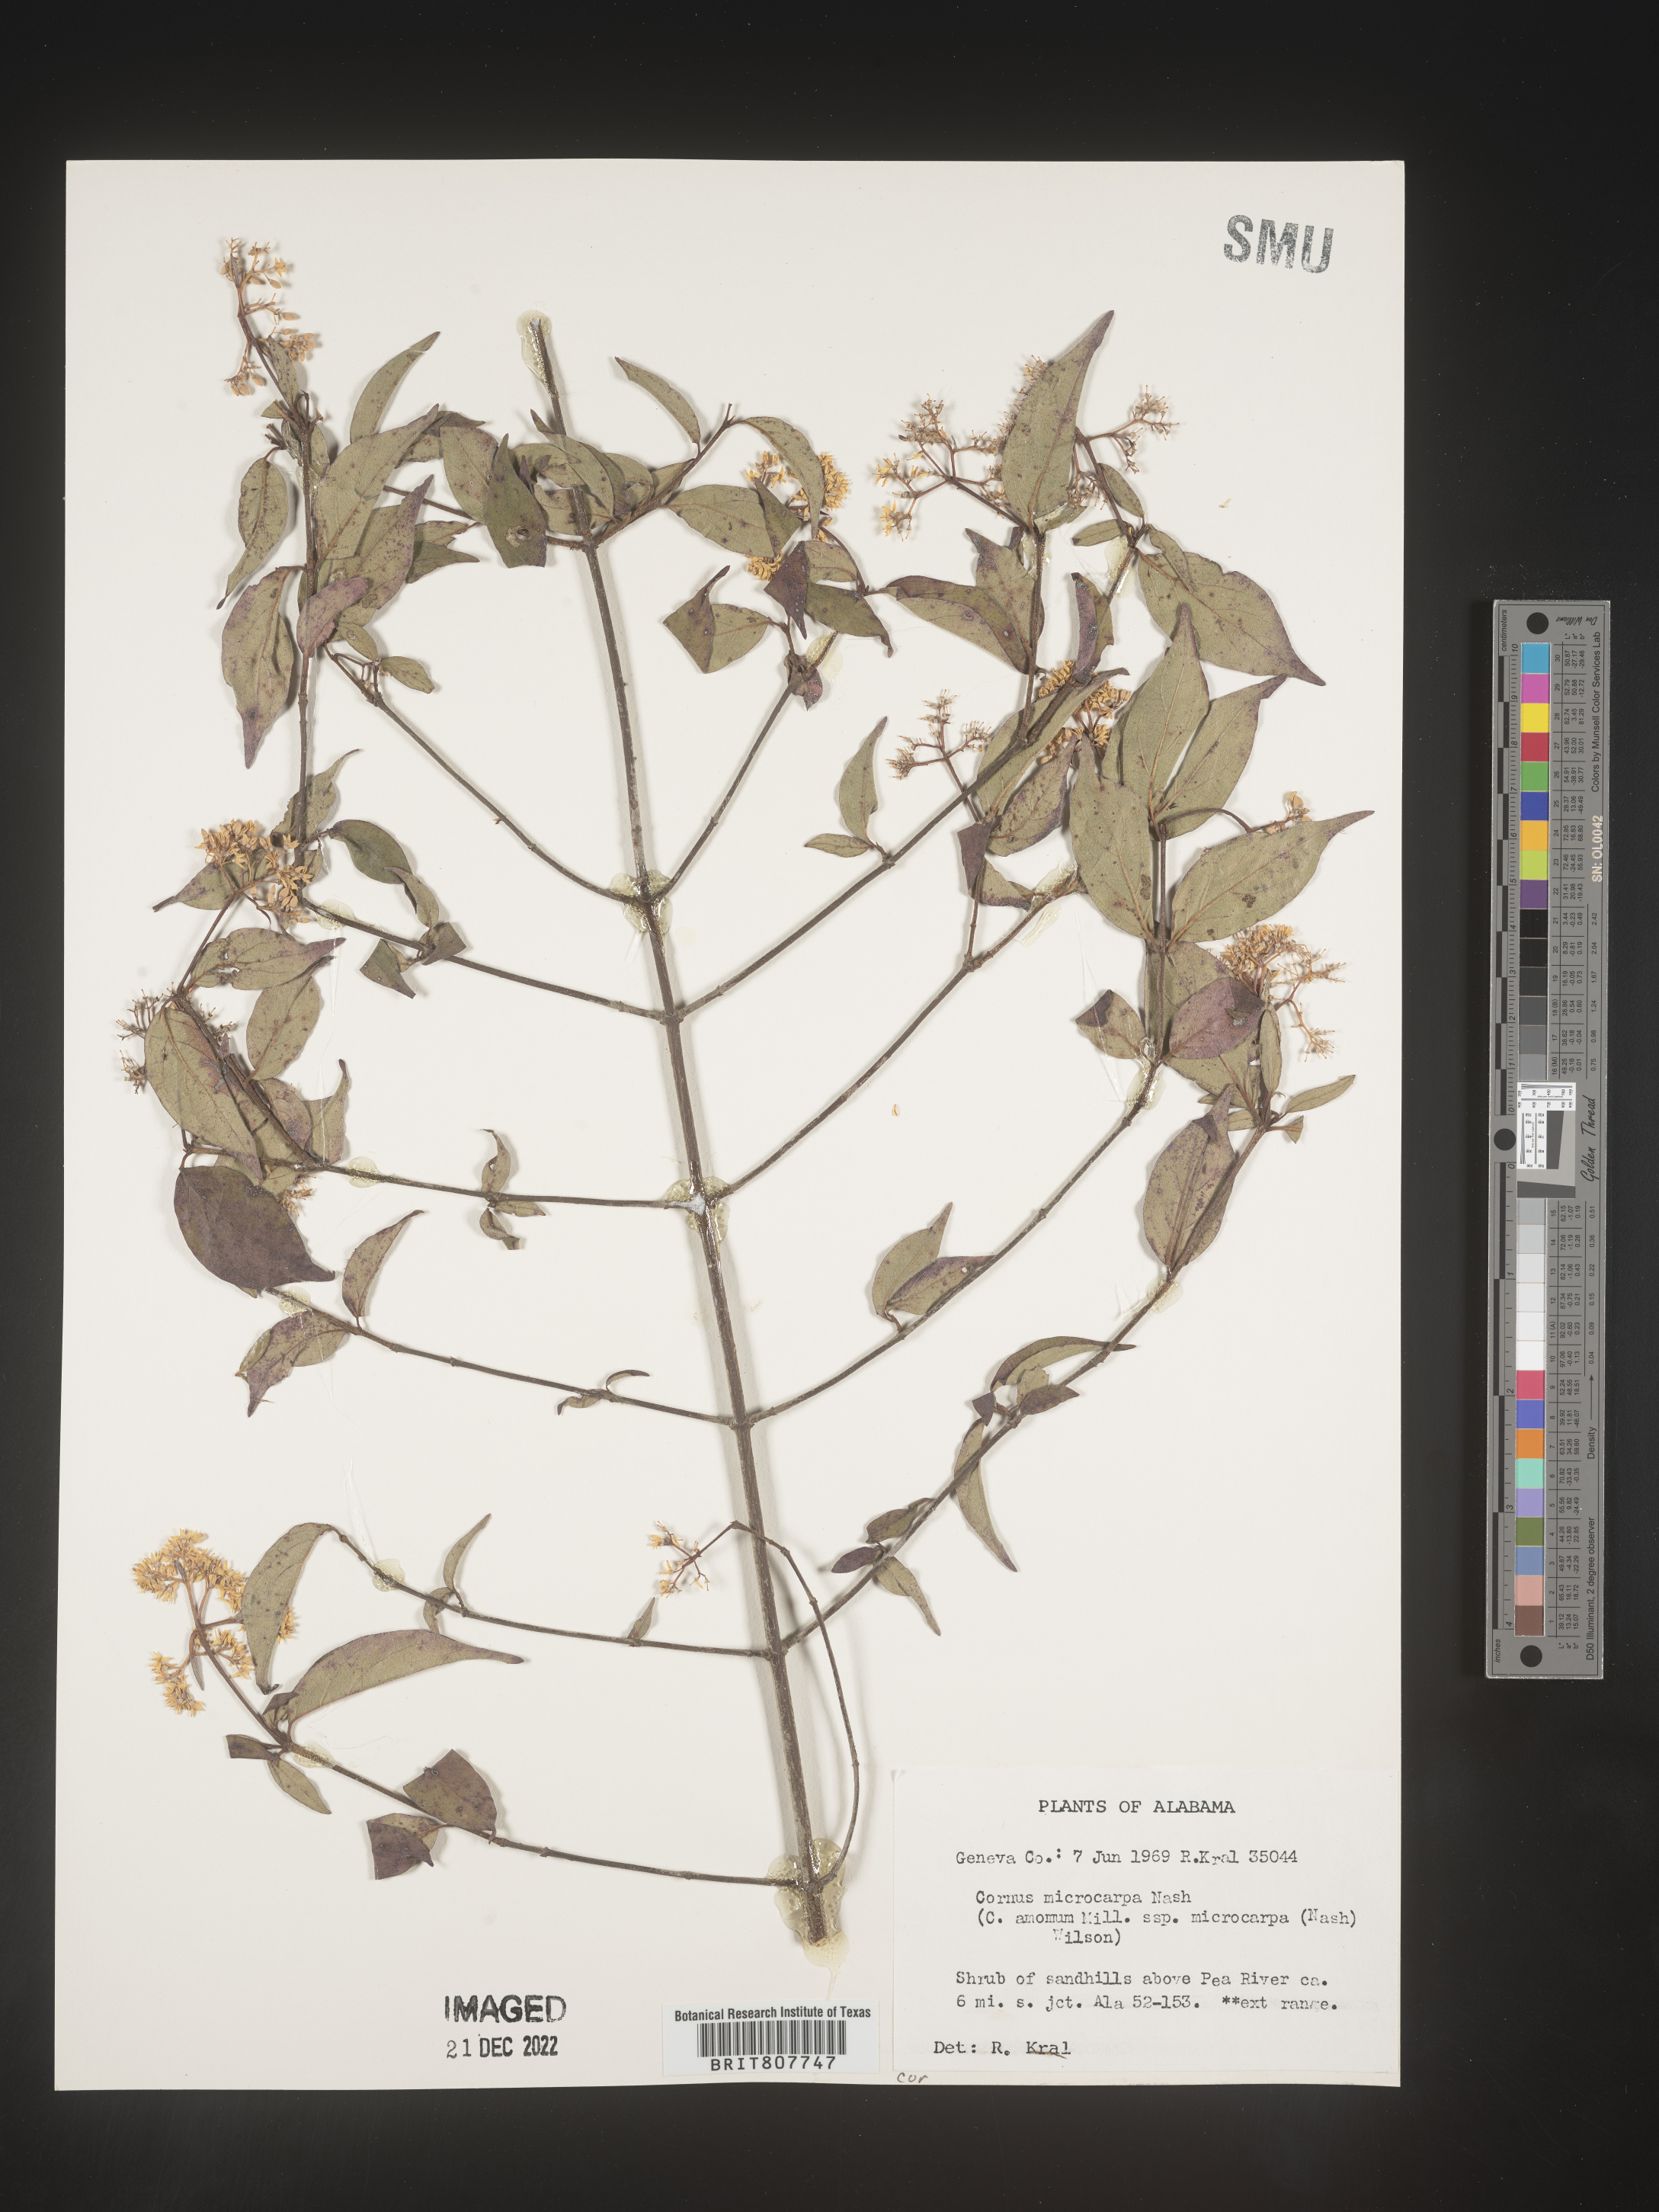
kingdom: Plantae
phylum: Tracheophyta
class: Magnoliopsida
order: Cornales
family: Cornaceae
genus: Cornus
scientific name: Cornus
